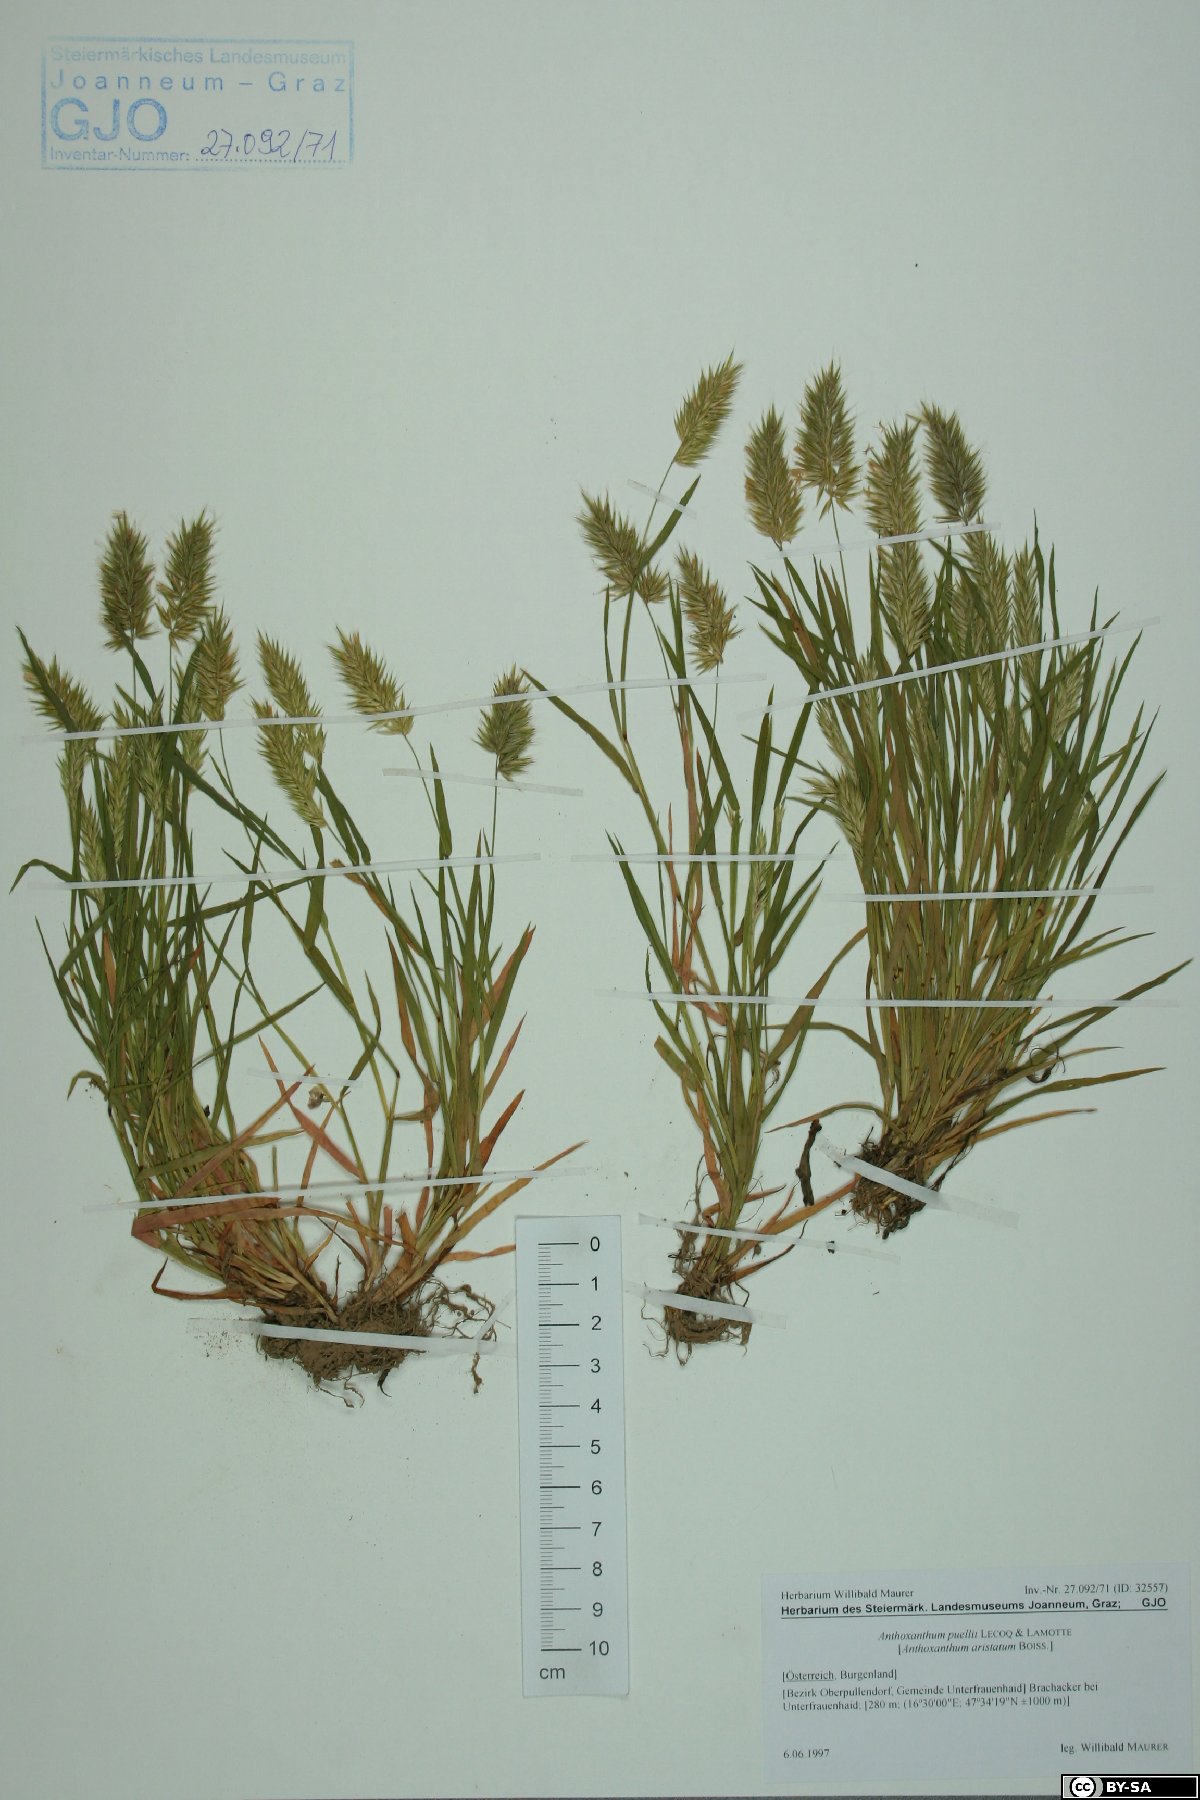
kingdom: Plantae
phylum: Tracheophyta
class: Liliopsida
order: Poales
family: Poaceae
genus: Anthoxanthum
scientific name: Anthoxanthum aristatum
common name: Annual vernal-grass
